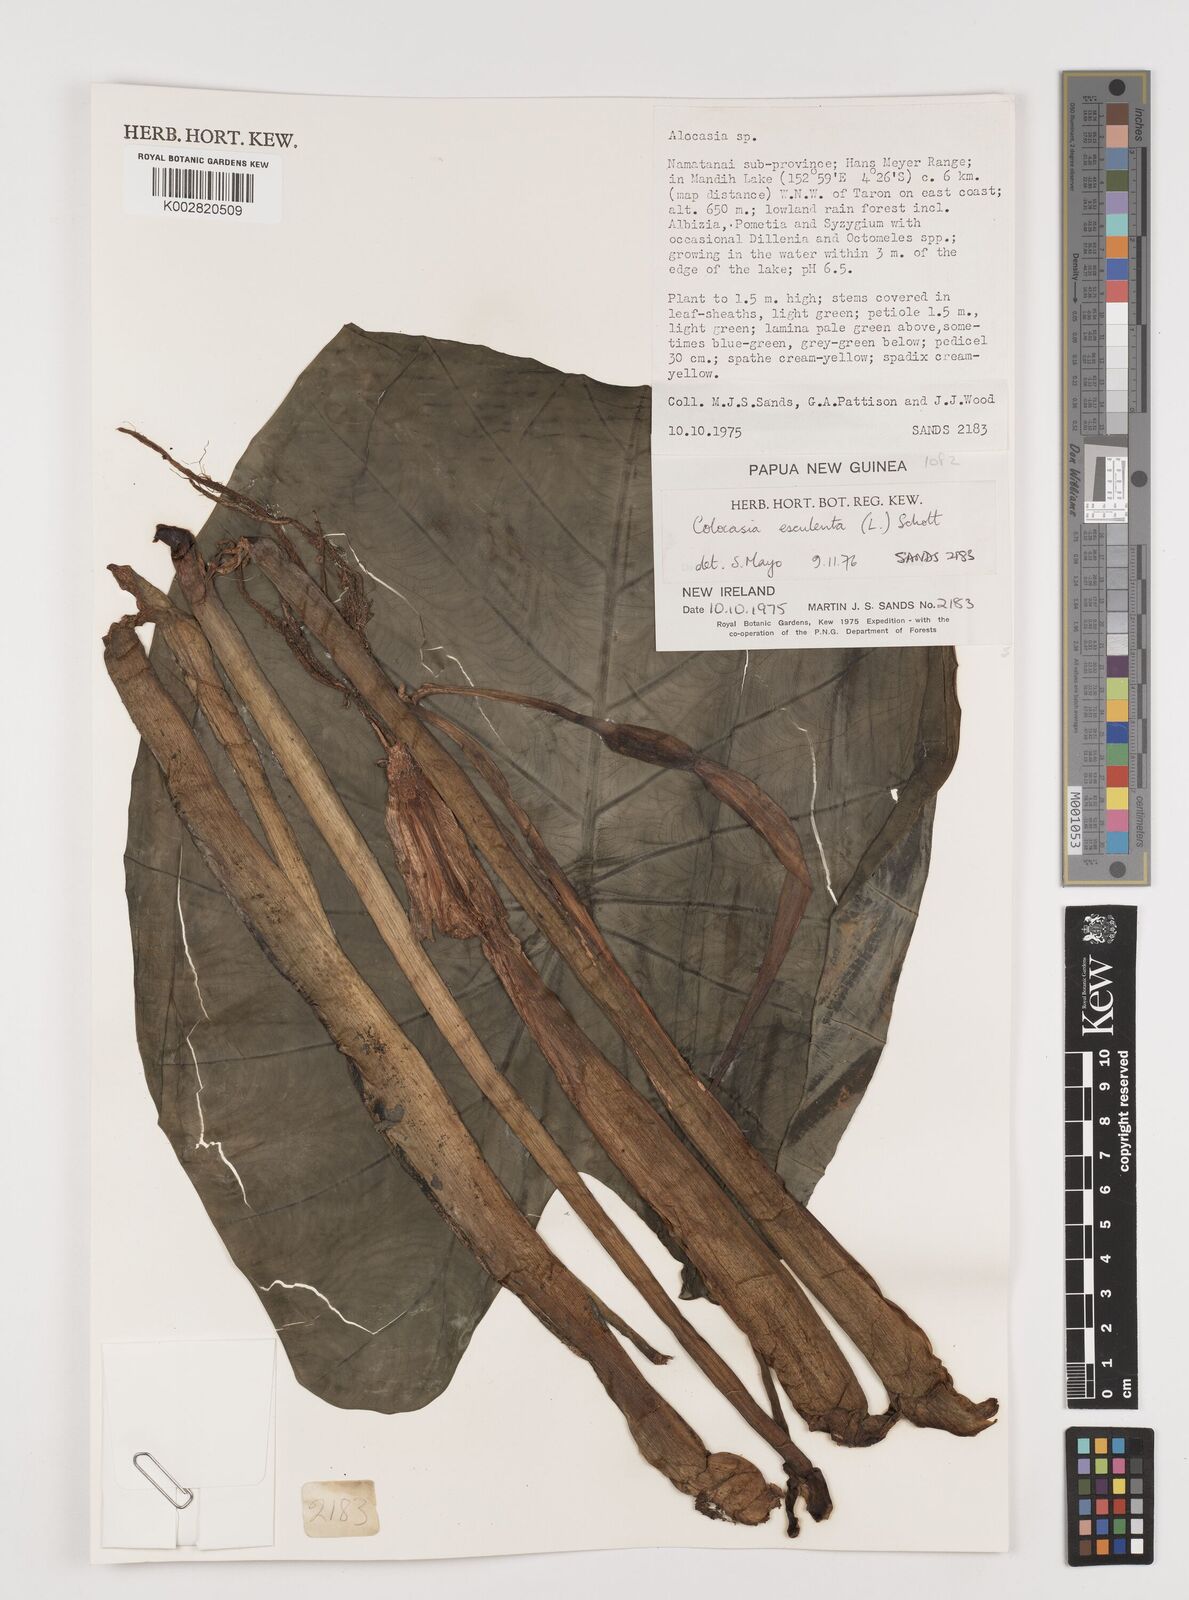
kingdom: Plantae
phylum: Tracheophyta
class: Liliopsida
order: Alismatales
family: Araceae
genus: Colocasia
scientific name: Colocasia esculenta
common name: Taro
